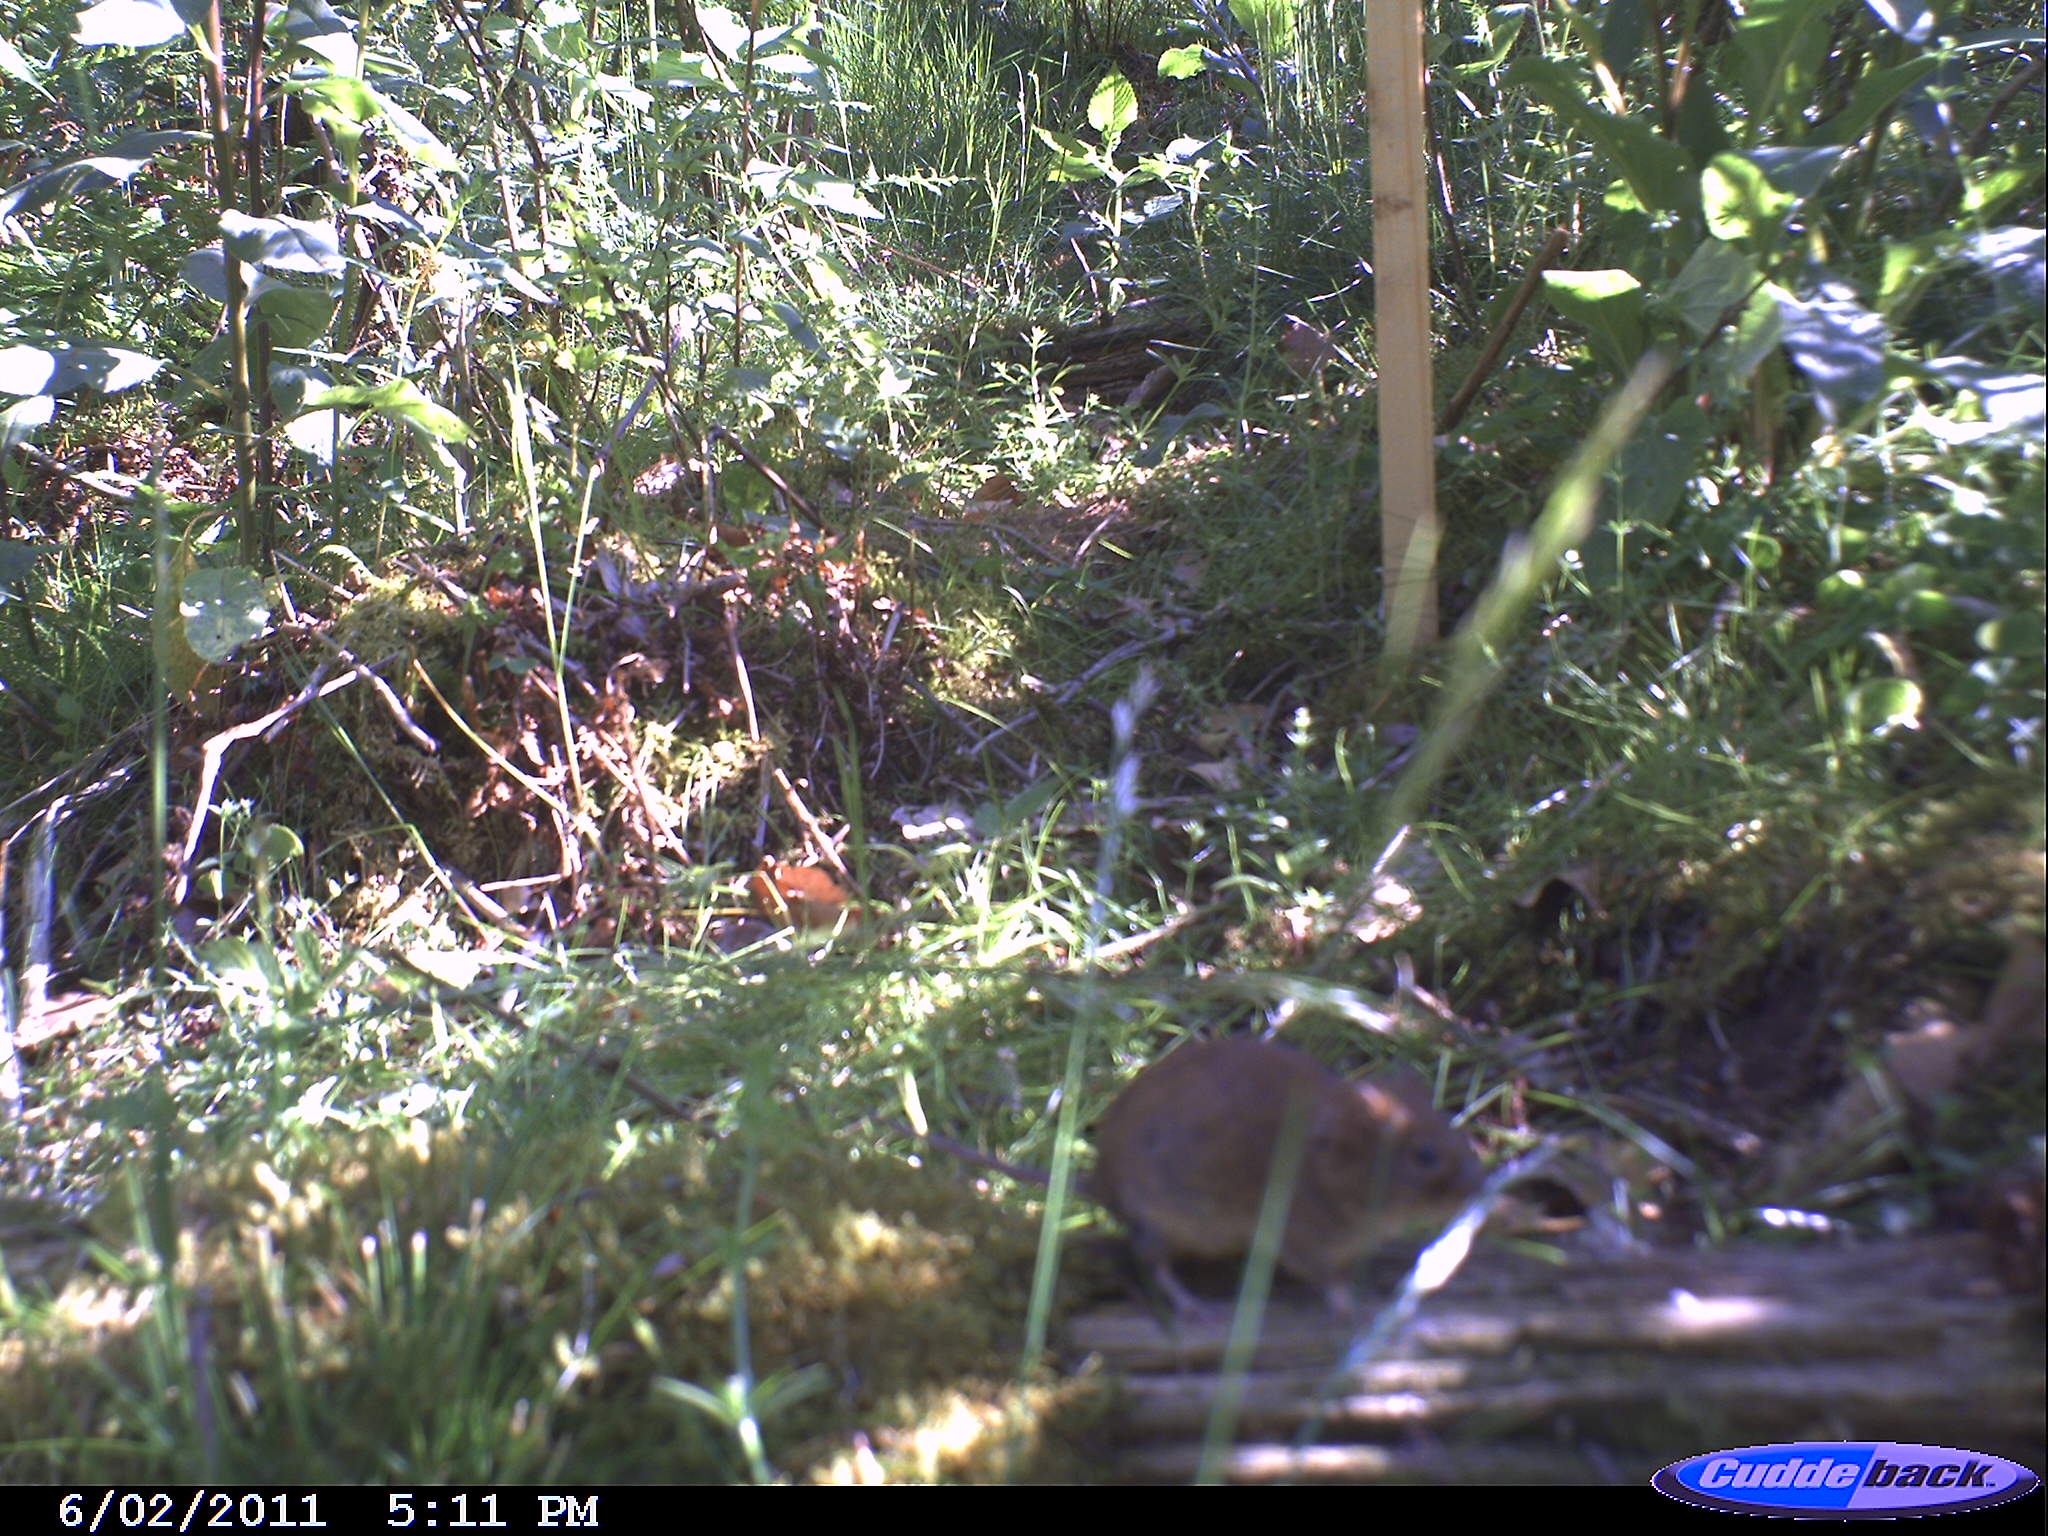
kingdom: Animalia
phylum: Chordata
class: Mammalia
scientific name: Mammalia
